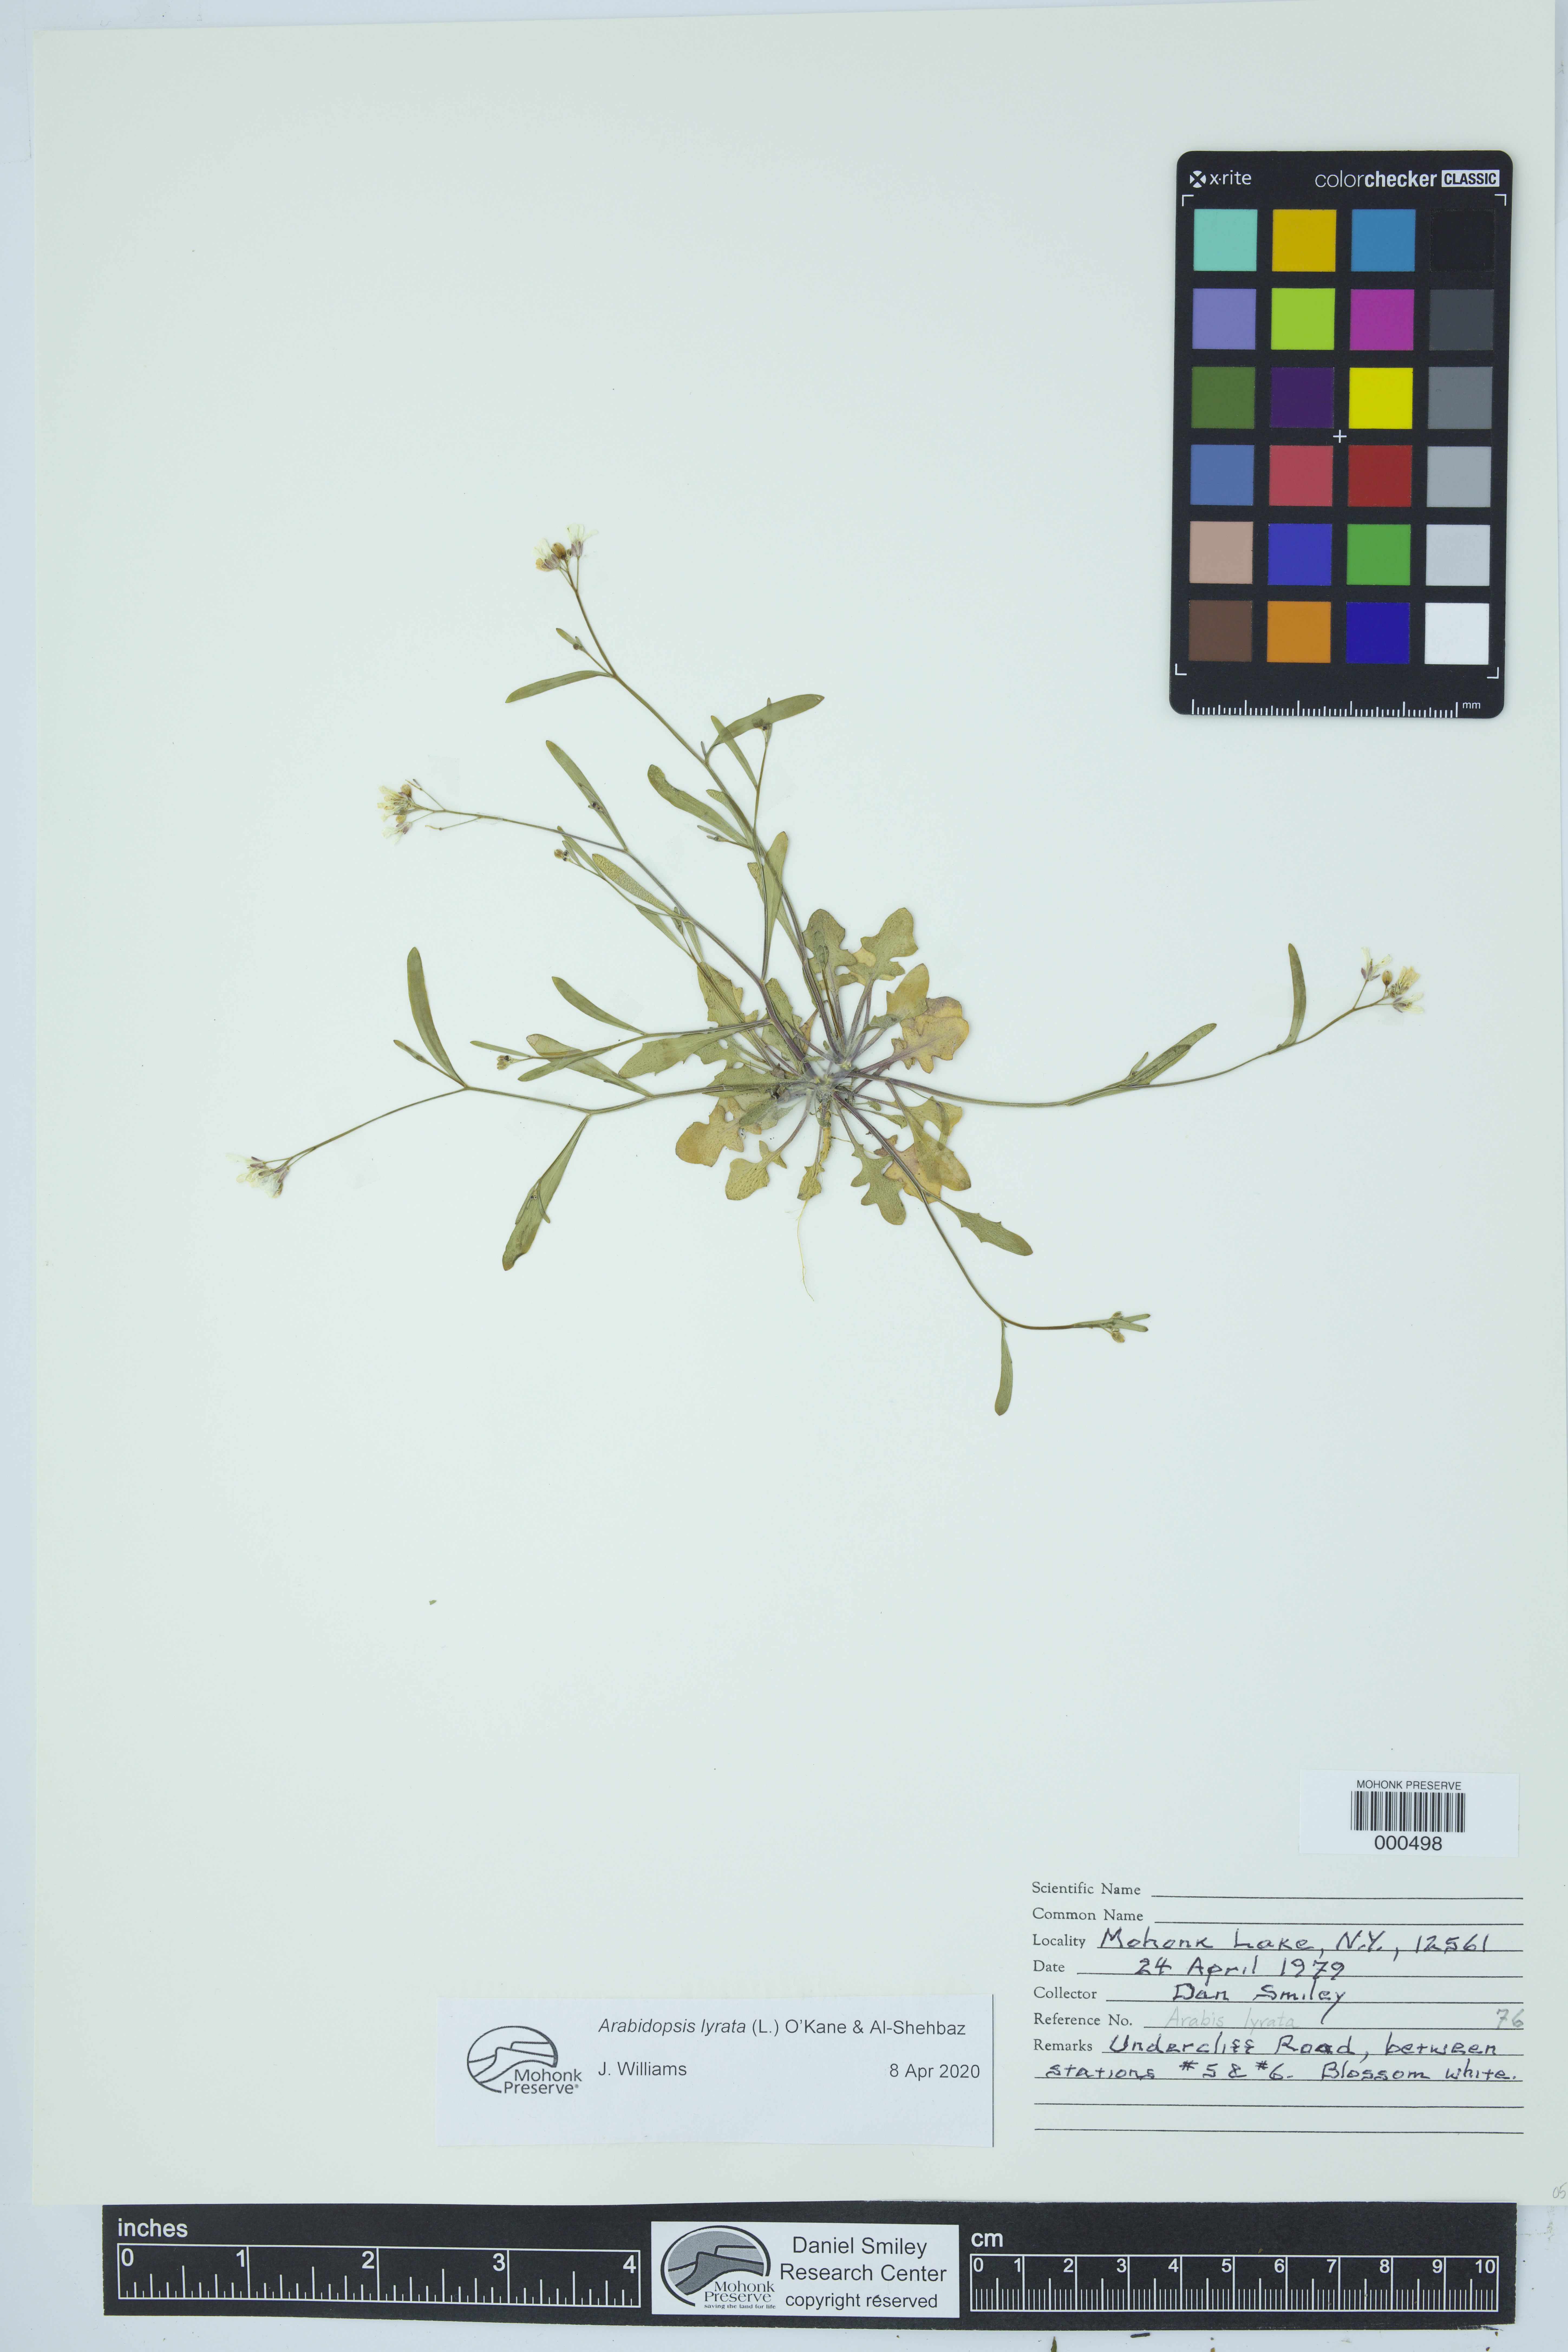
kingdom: Plantae
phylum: Tracheophyta
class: Magnoliopsida
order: Brassicales
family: Brassicaceae
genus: Arabidopsis
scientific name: Arabidopsis lyrata
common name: Lyrate rockcress
